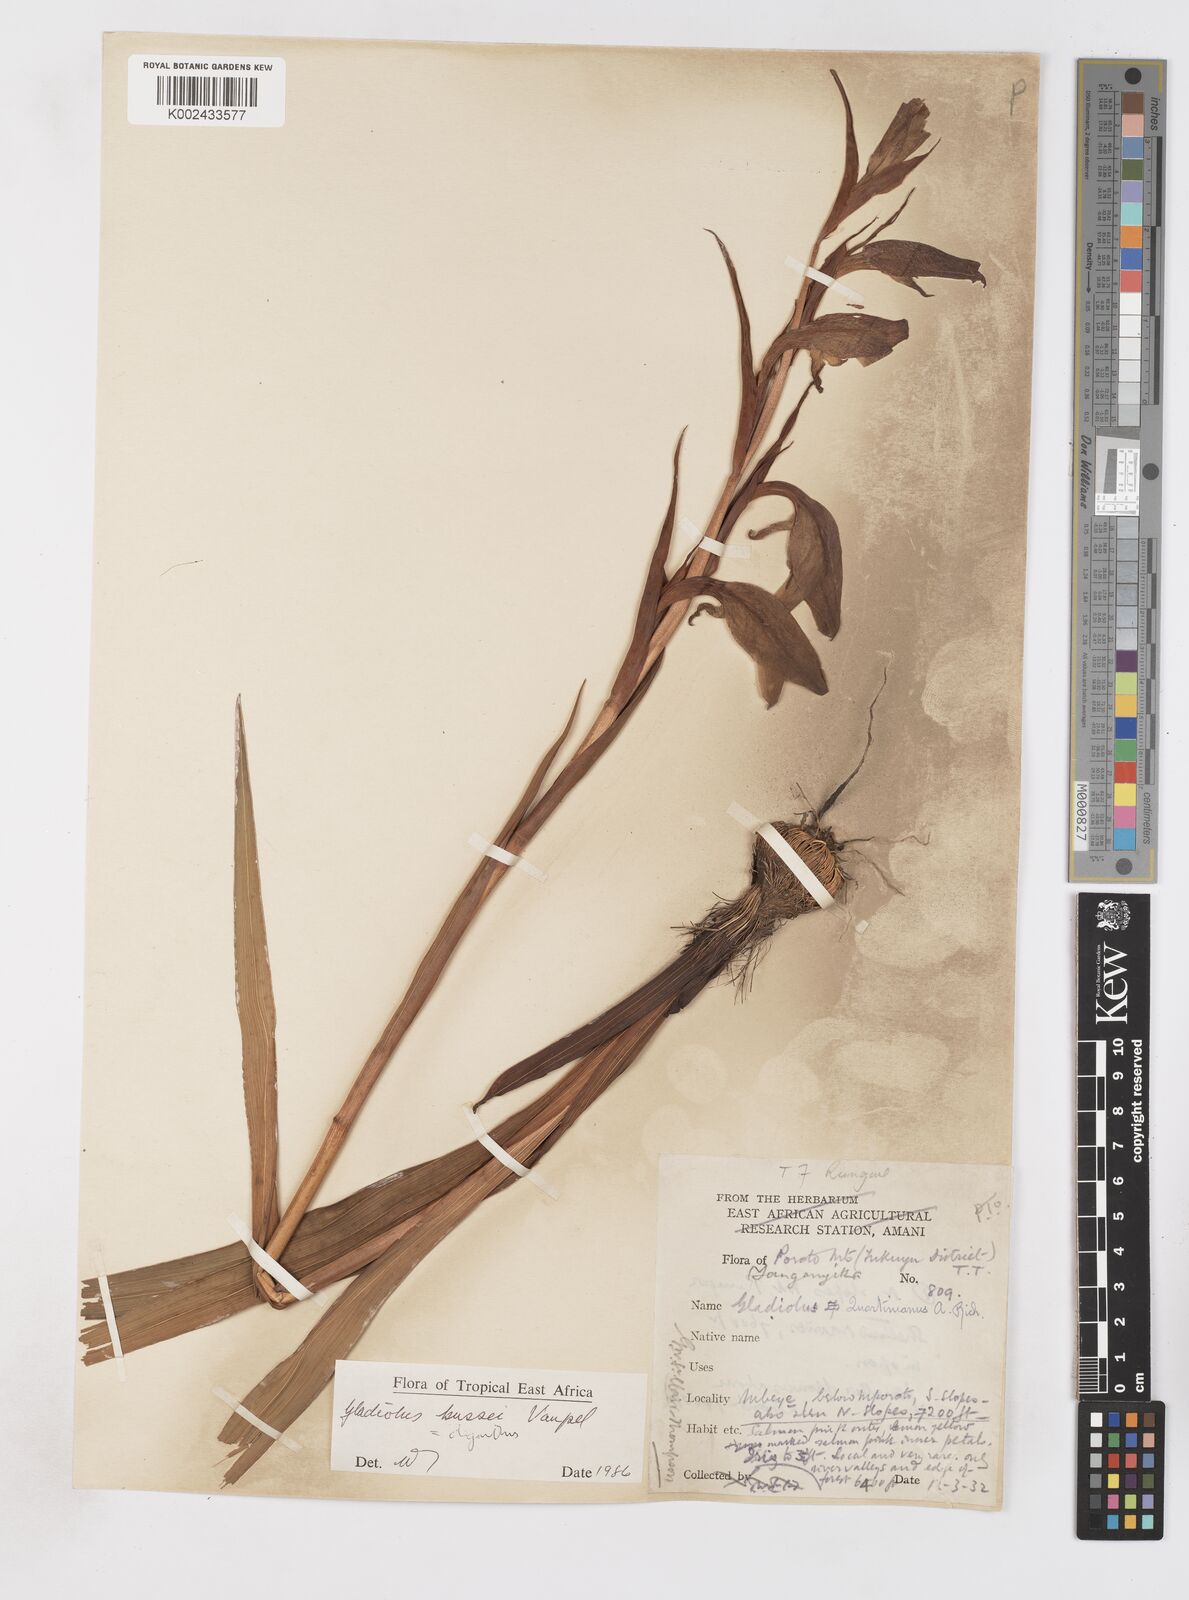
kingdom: Plantae
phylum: Tracheophyta
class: Liliopsida
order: Asparagales
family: Iridaceae
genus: Gladiolus
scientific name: Gladiolus oliganthus
